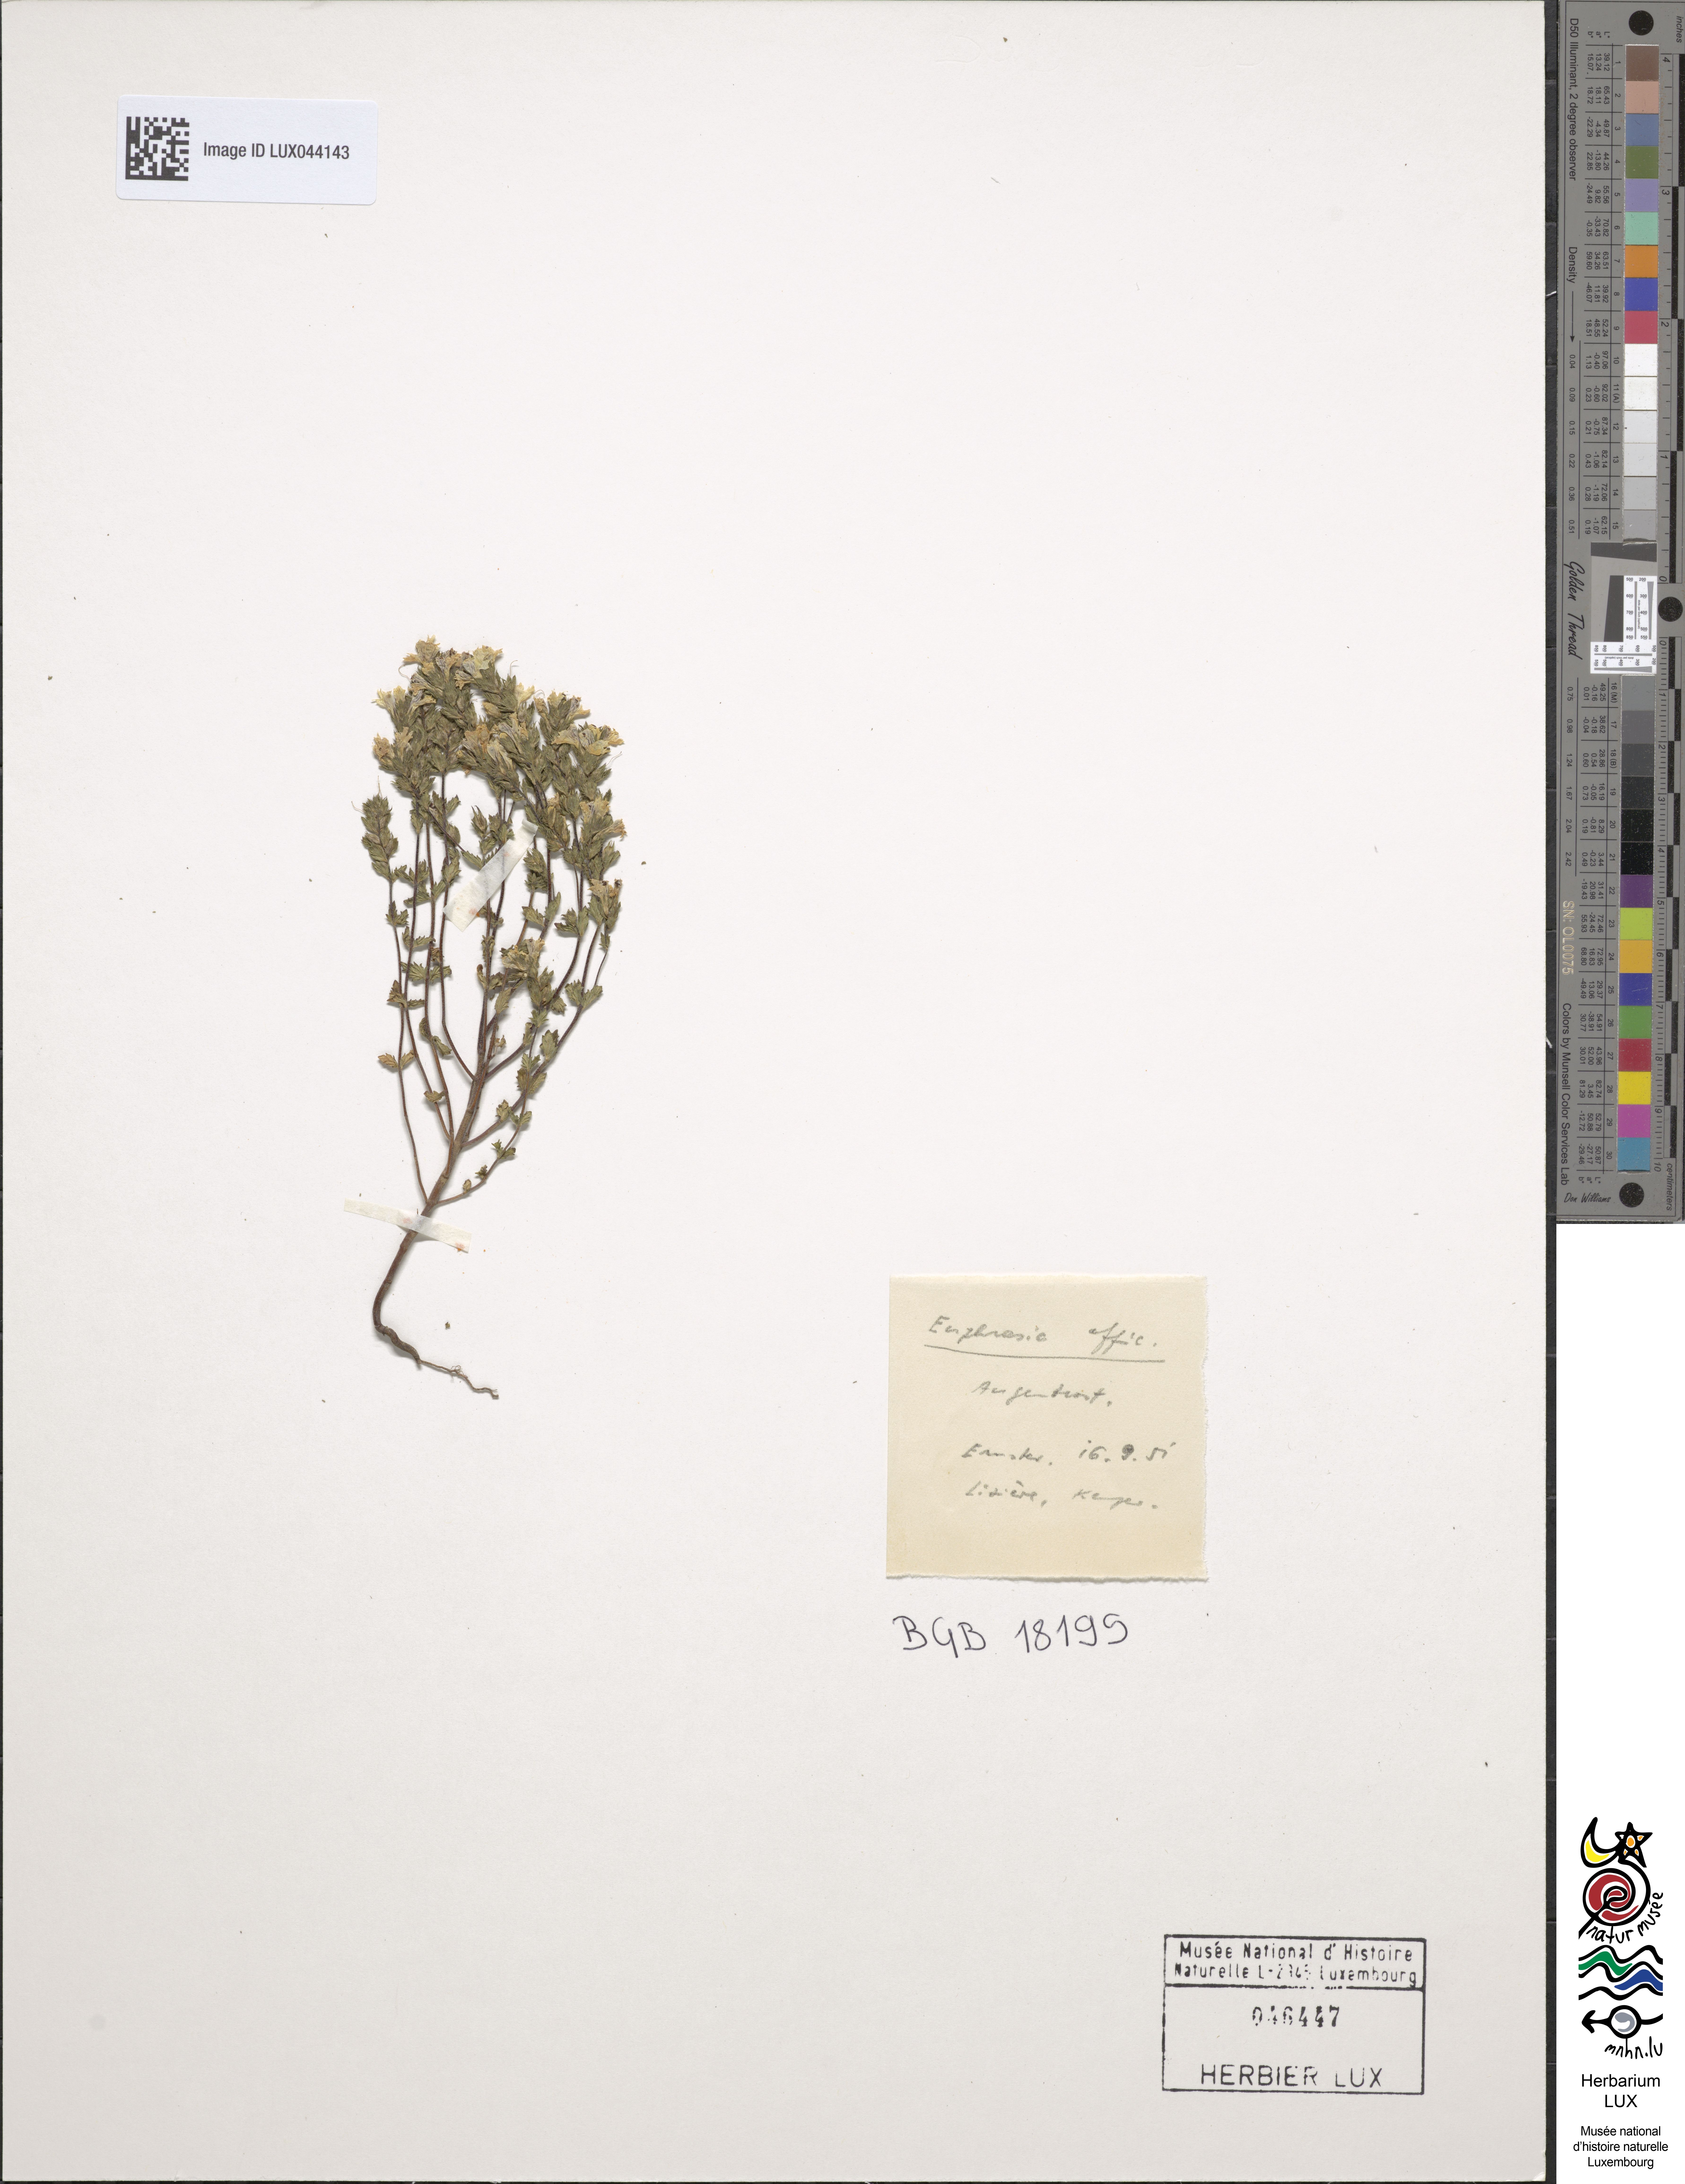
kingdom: Plantae
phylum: Tracheophyta
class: Magnoliopsida
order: Lamiales
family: Orobanchaceae
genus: Euphrasia
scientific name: Euphrasia officinalis
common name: Eyebright
